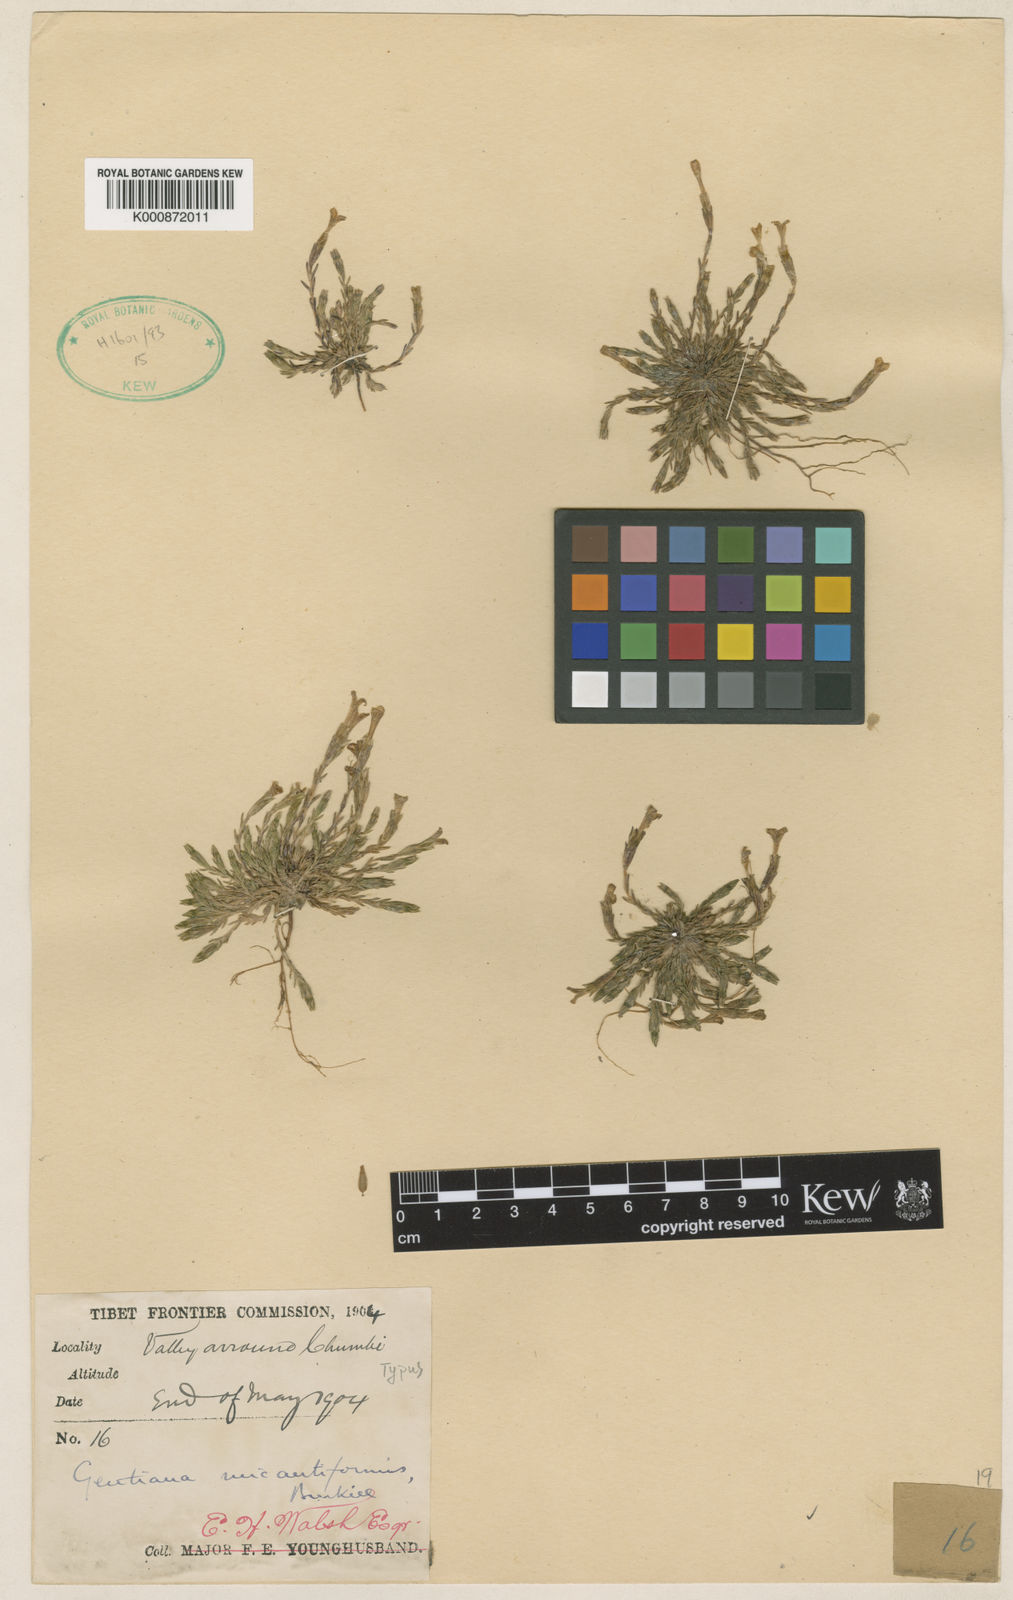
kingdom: Plantae
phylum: Tracheophyta
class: Magnoliopsida
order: Gentianales
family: Gentianaceae
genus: Gentiana
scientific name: Gentiana micantiformis
